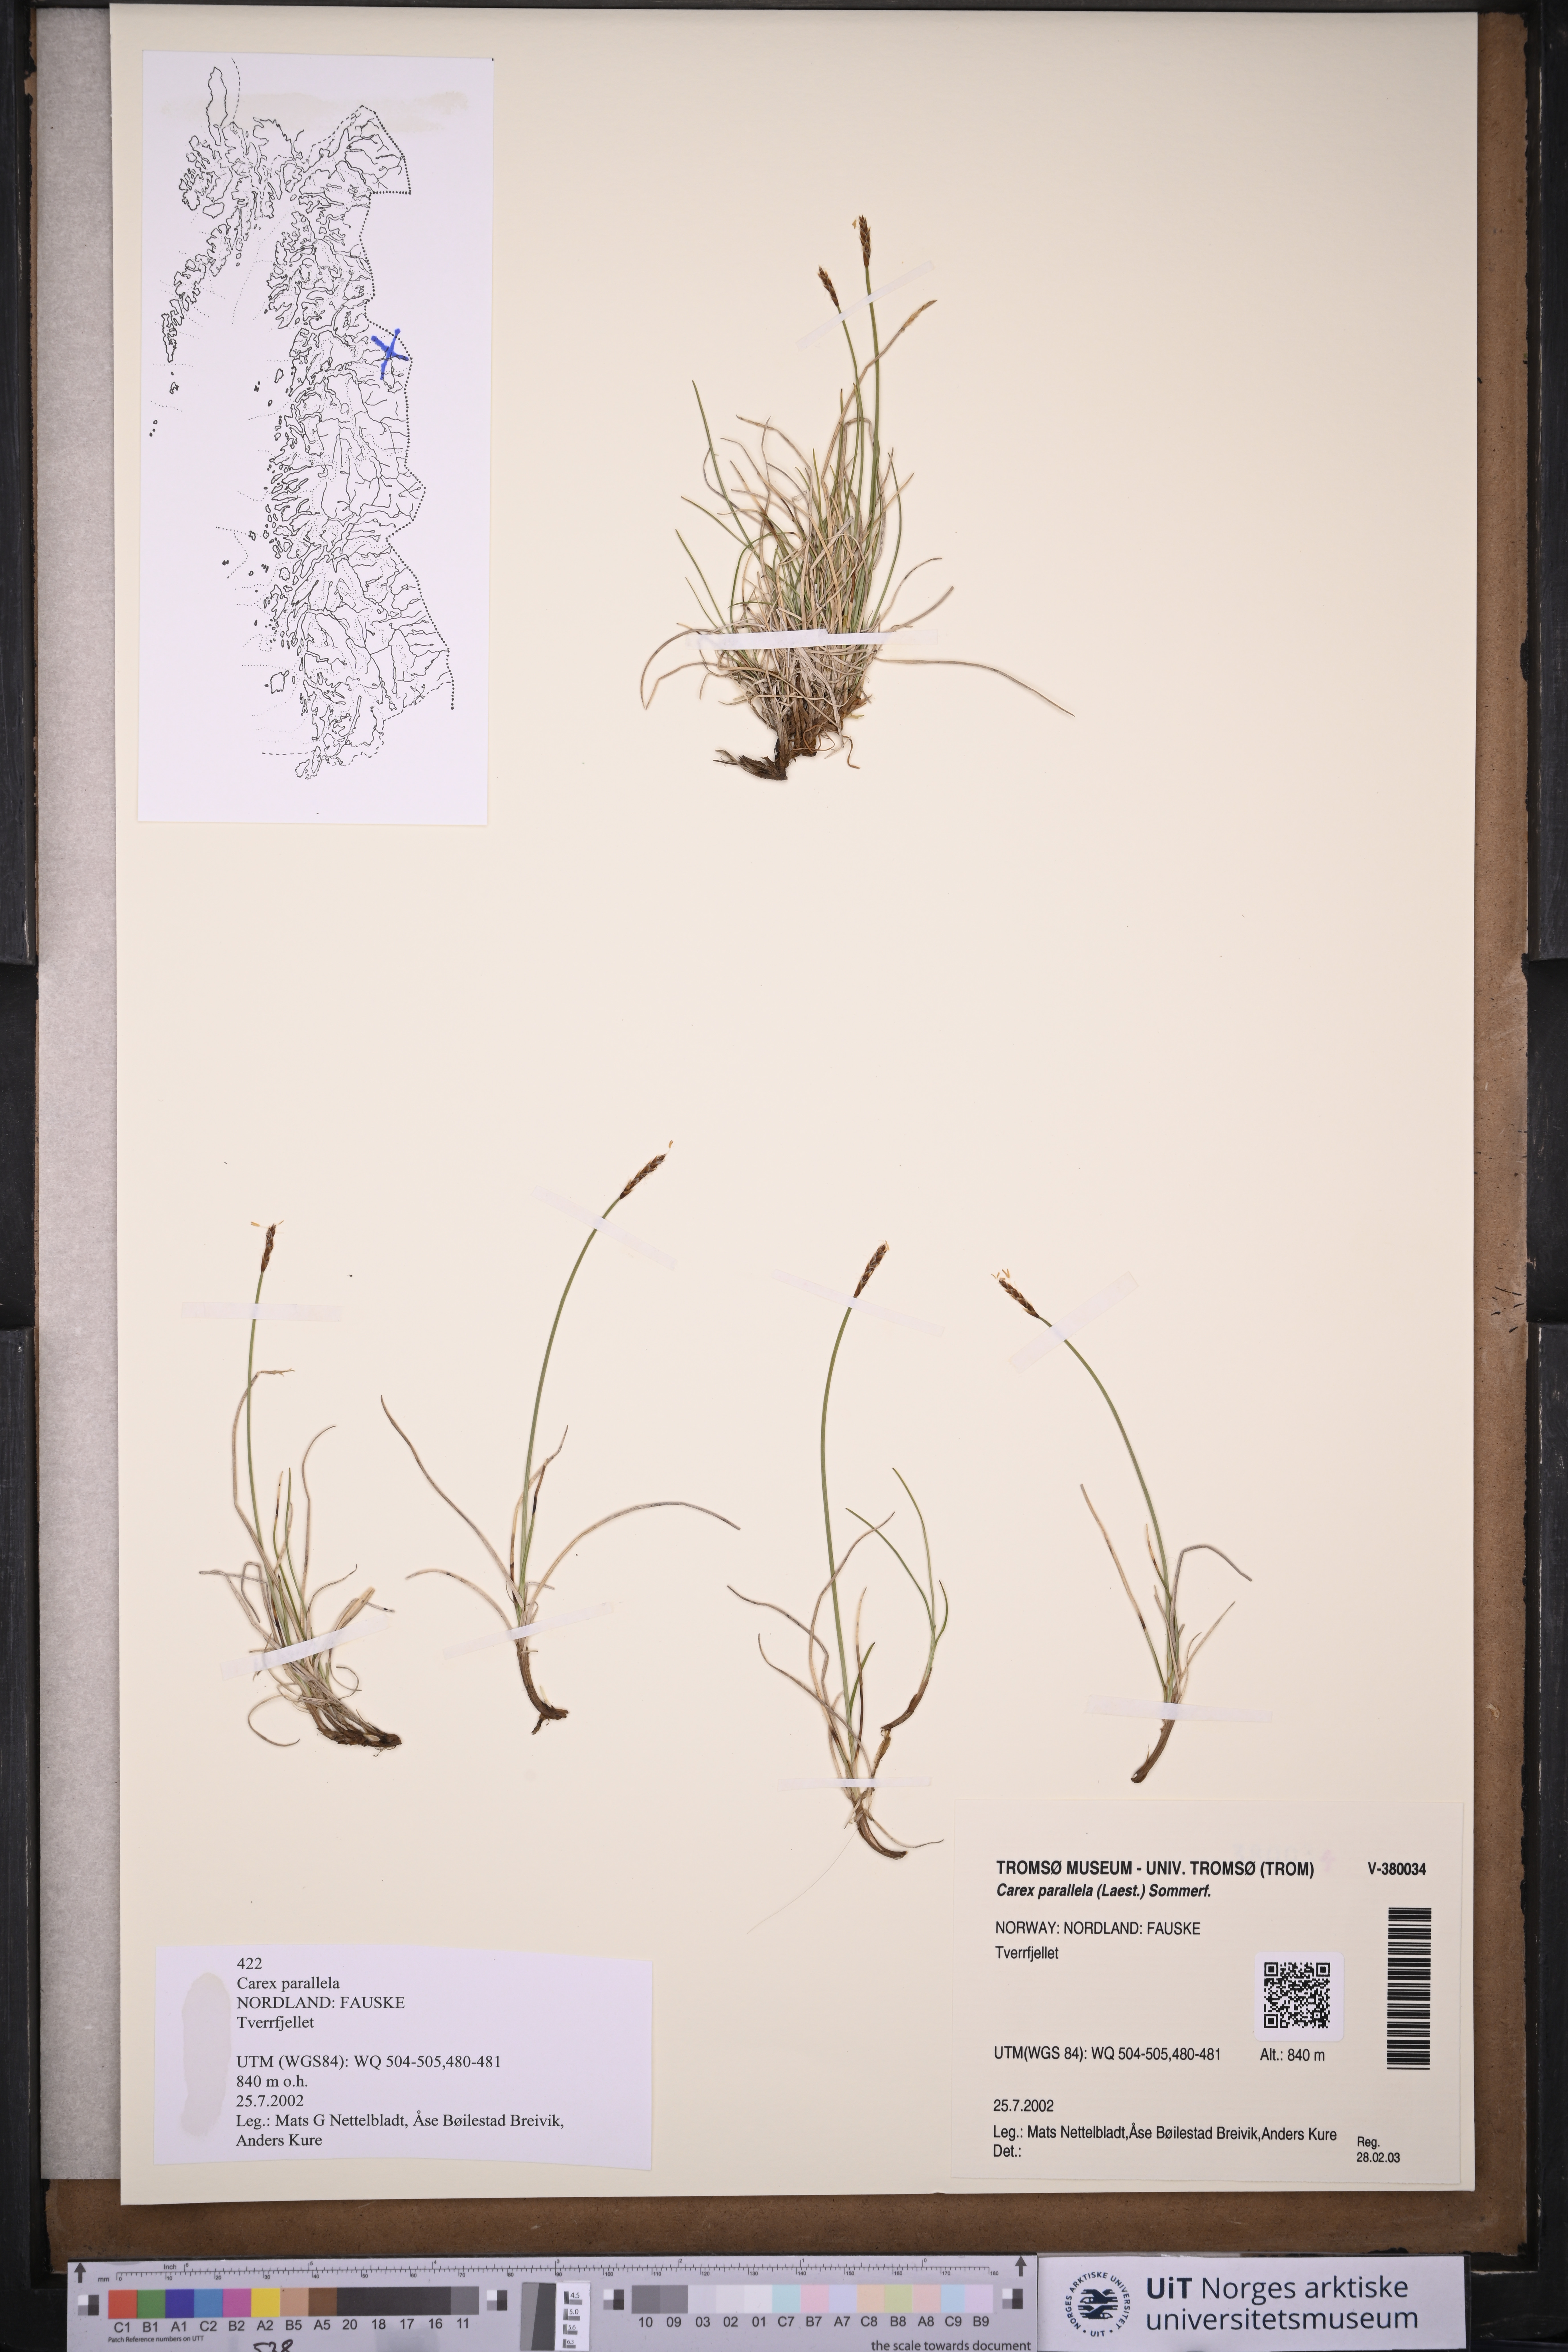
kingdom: Plantae
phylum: Tracheophyta
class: Liliopsida
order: Poales
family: Cyperaceae
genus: Carex
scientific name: Carex parallela
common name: Parallel sedge
